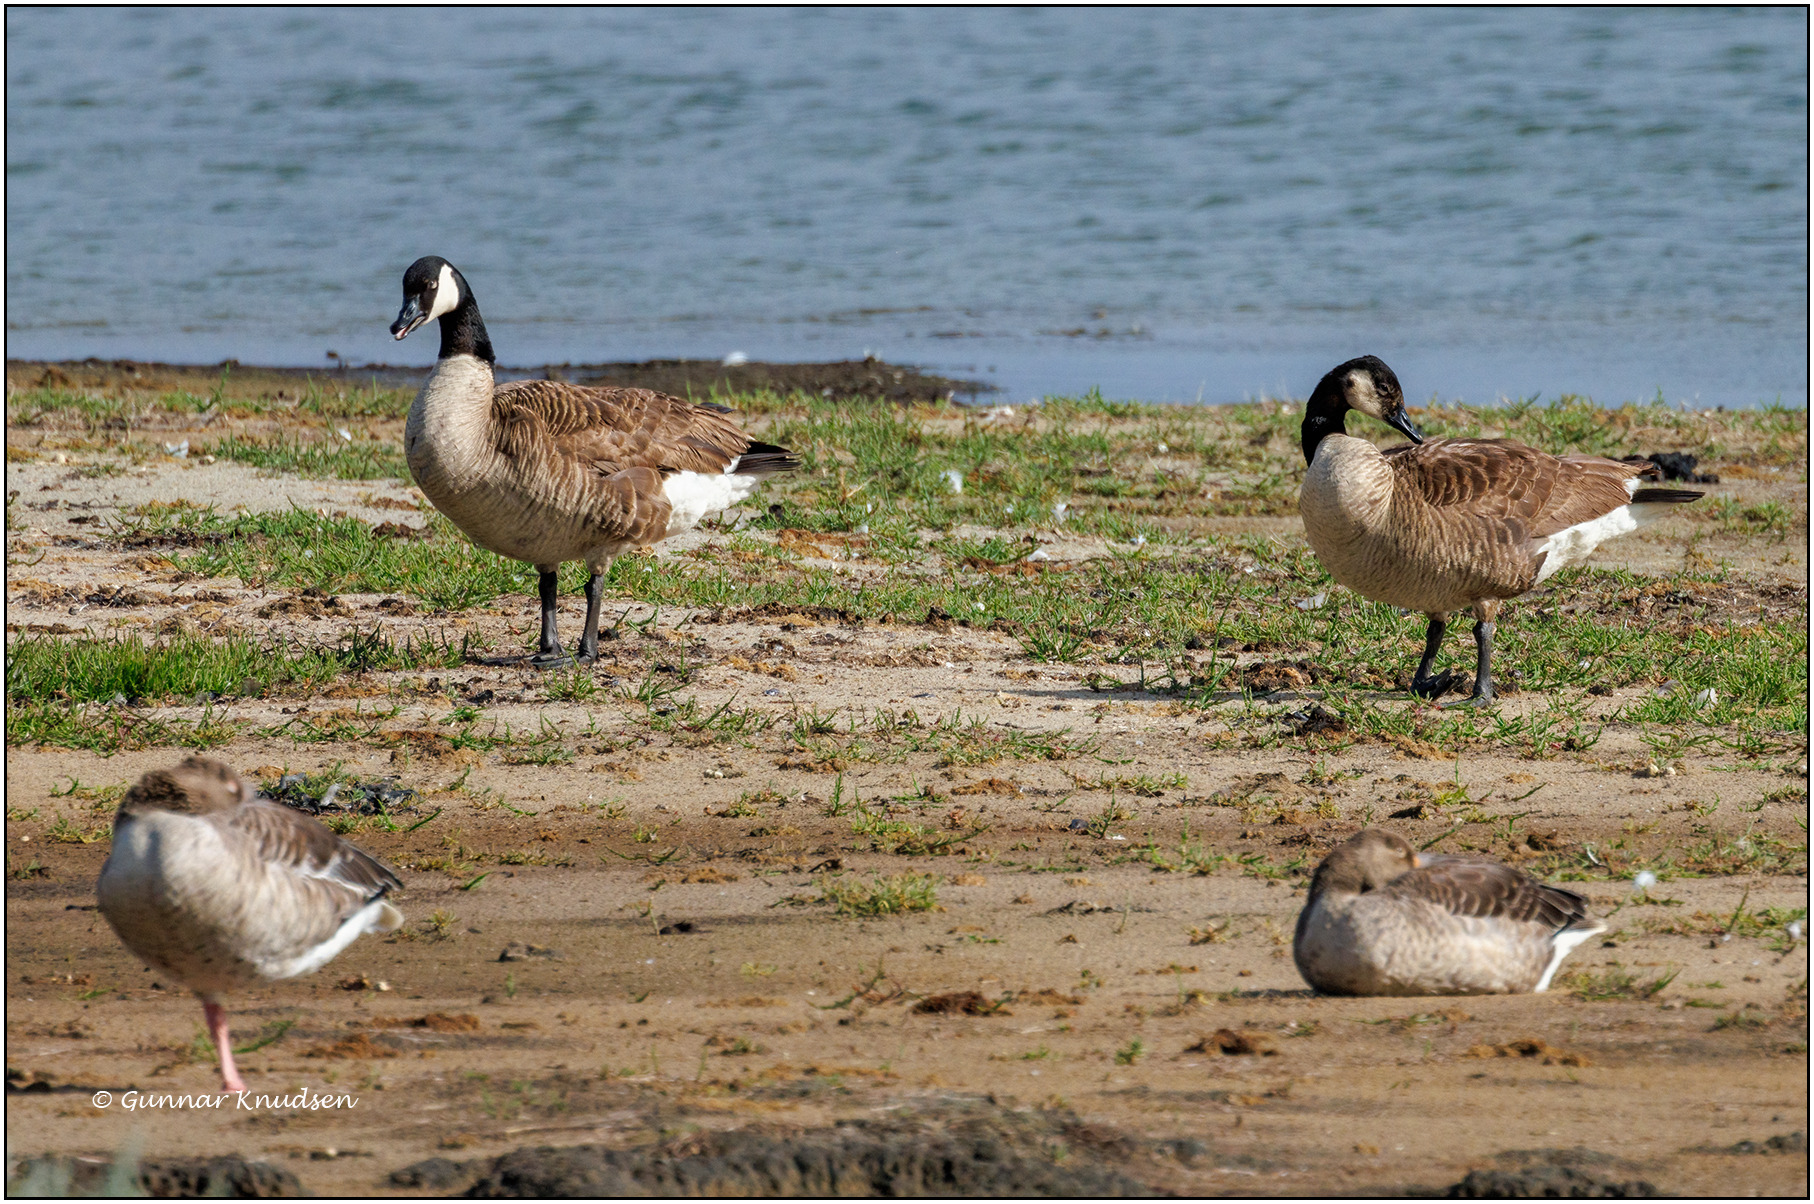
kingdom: Animalia
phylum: Chordata
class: Aves
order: Anseriformes
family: Anatidae
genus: Branta
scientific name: Branta canadensis
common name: Canadagås
